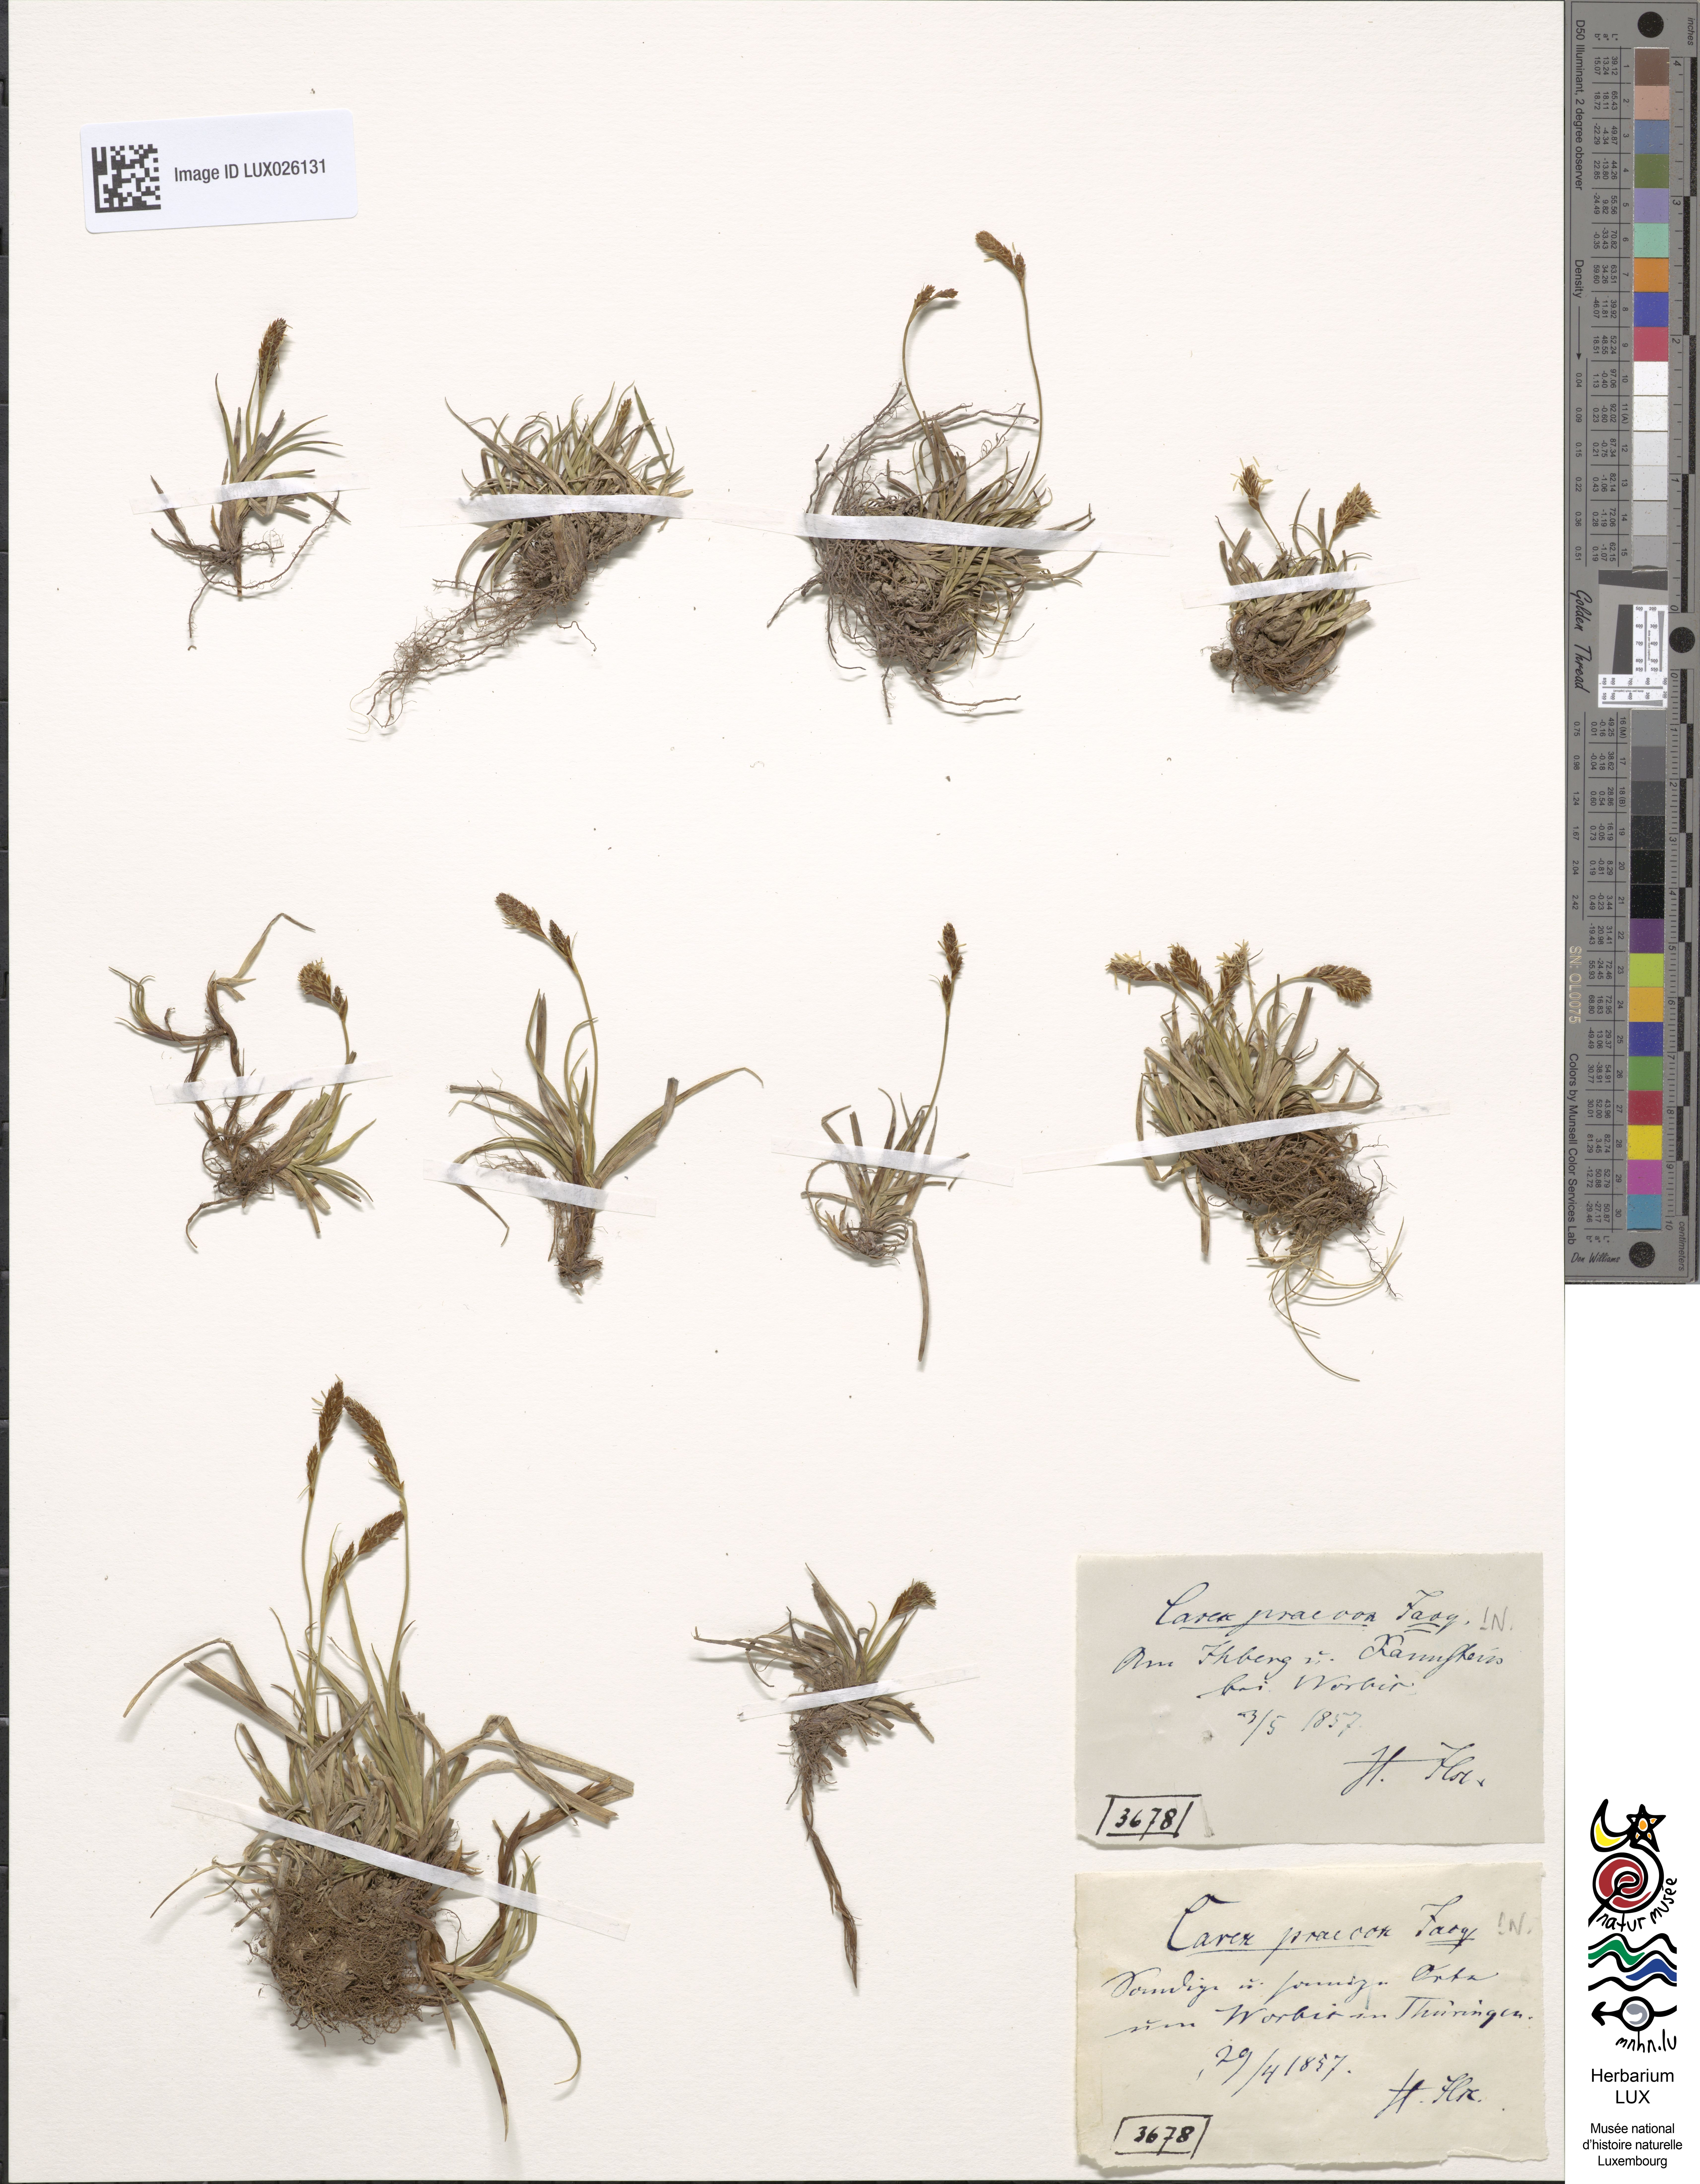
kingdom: Plantae
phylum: Tracheophyta
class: Liliopsida
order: Poales
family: Cyperaceae
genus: Carex
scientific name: Carex caryophyllea
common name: Spring sedge
